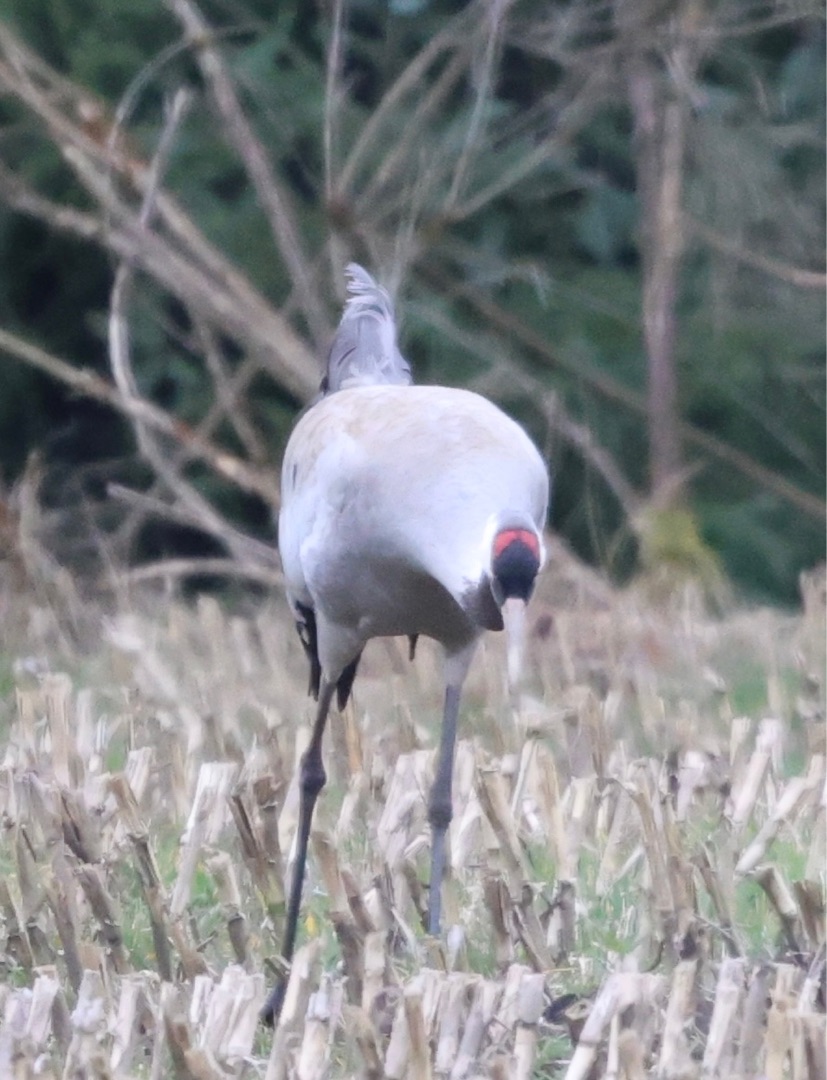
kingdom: Animalia
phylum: Chordata
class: Aves
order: Gruiformes
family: Gruidae
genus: Grus
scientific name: Grus grus
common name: Trane
